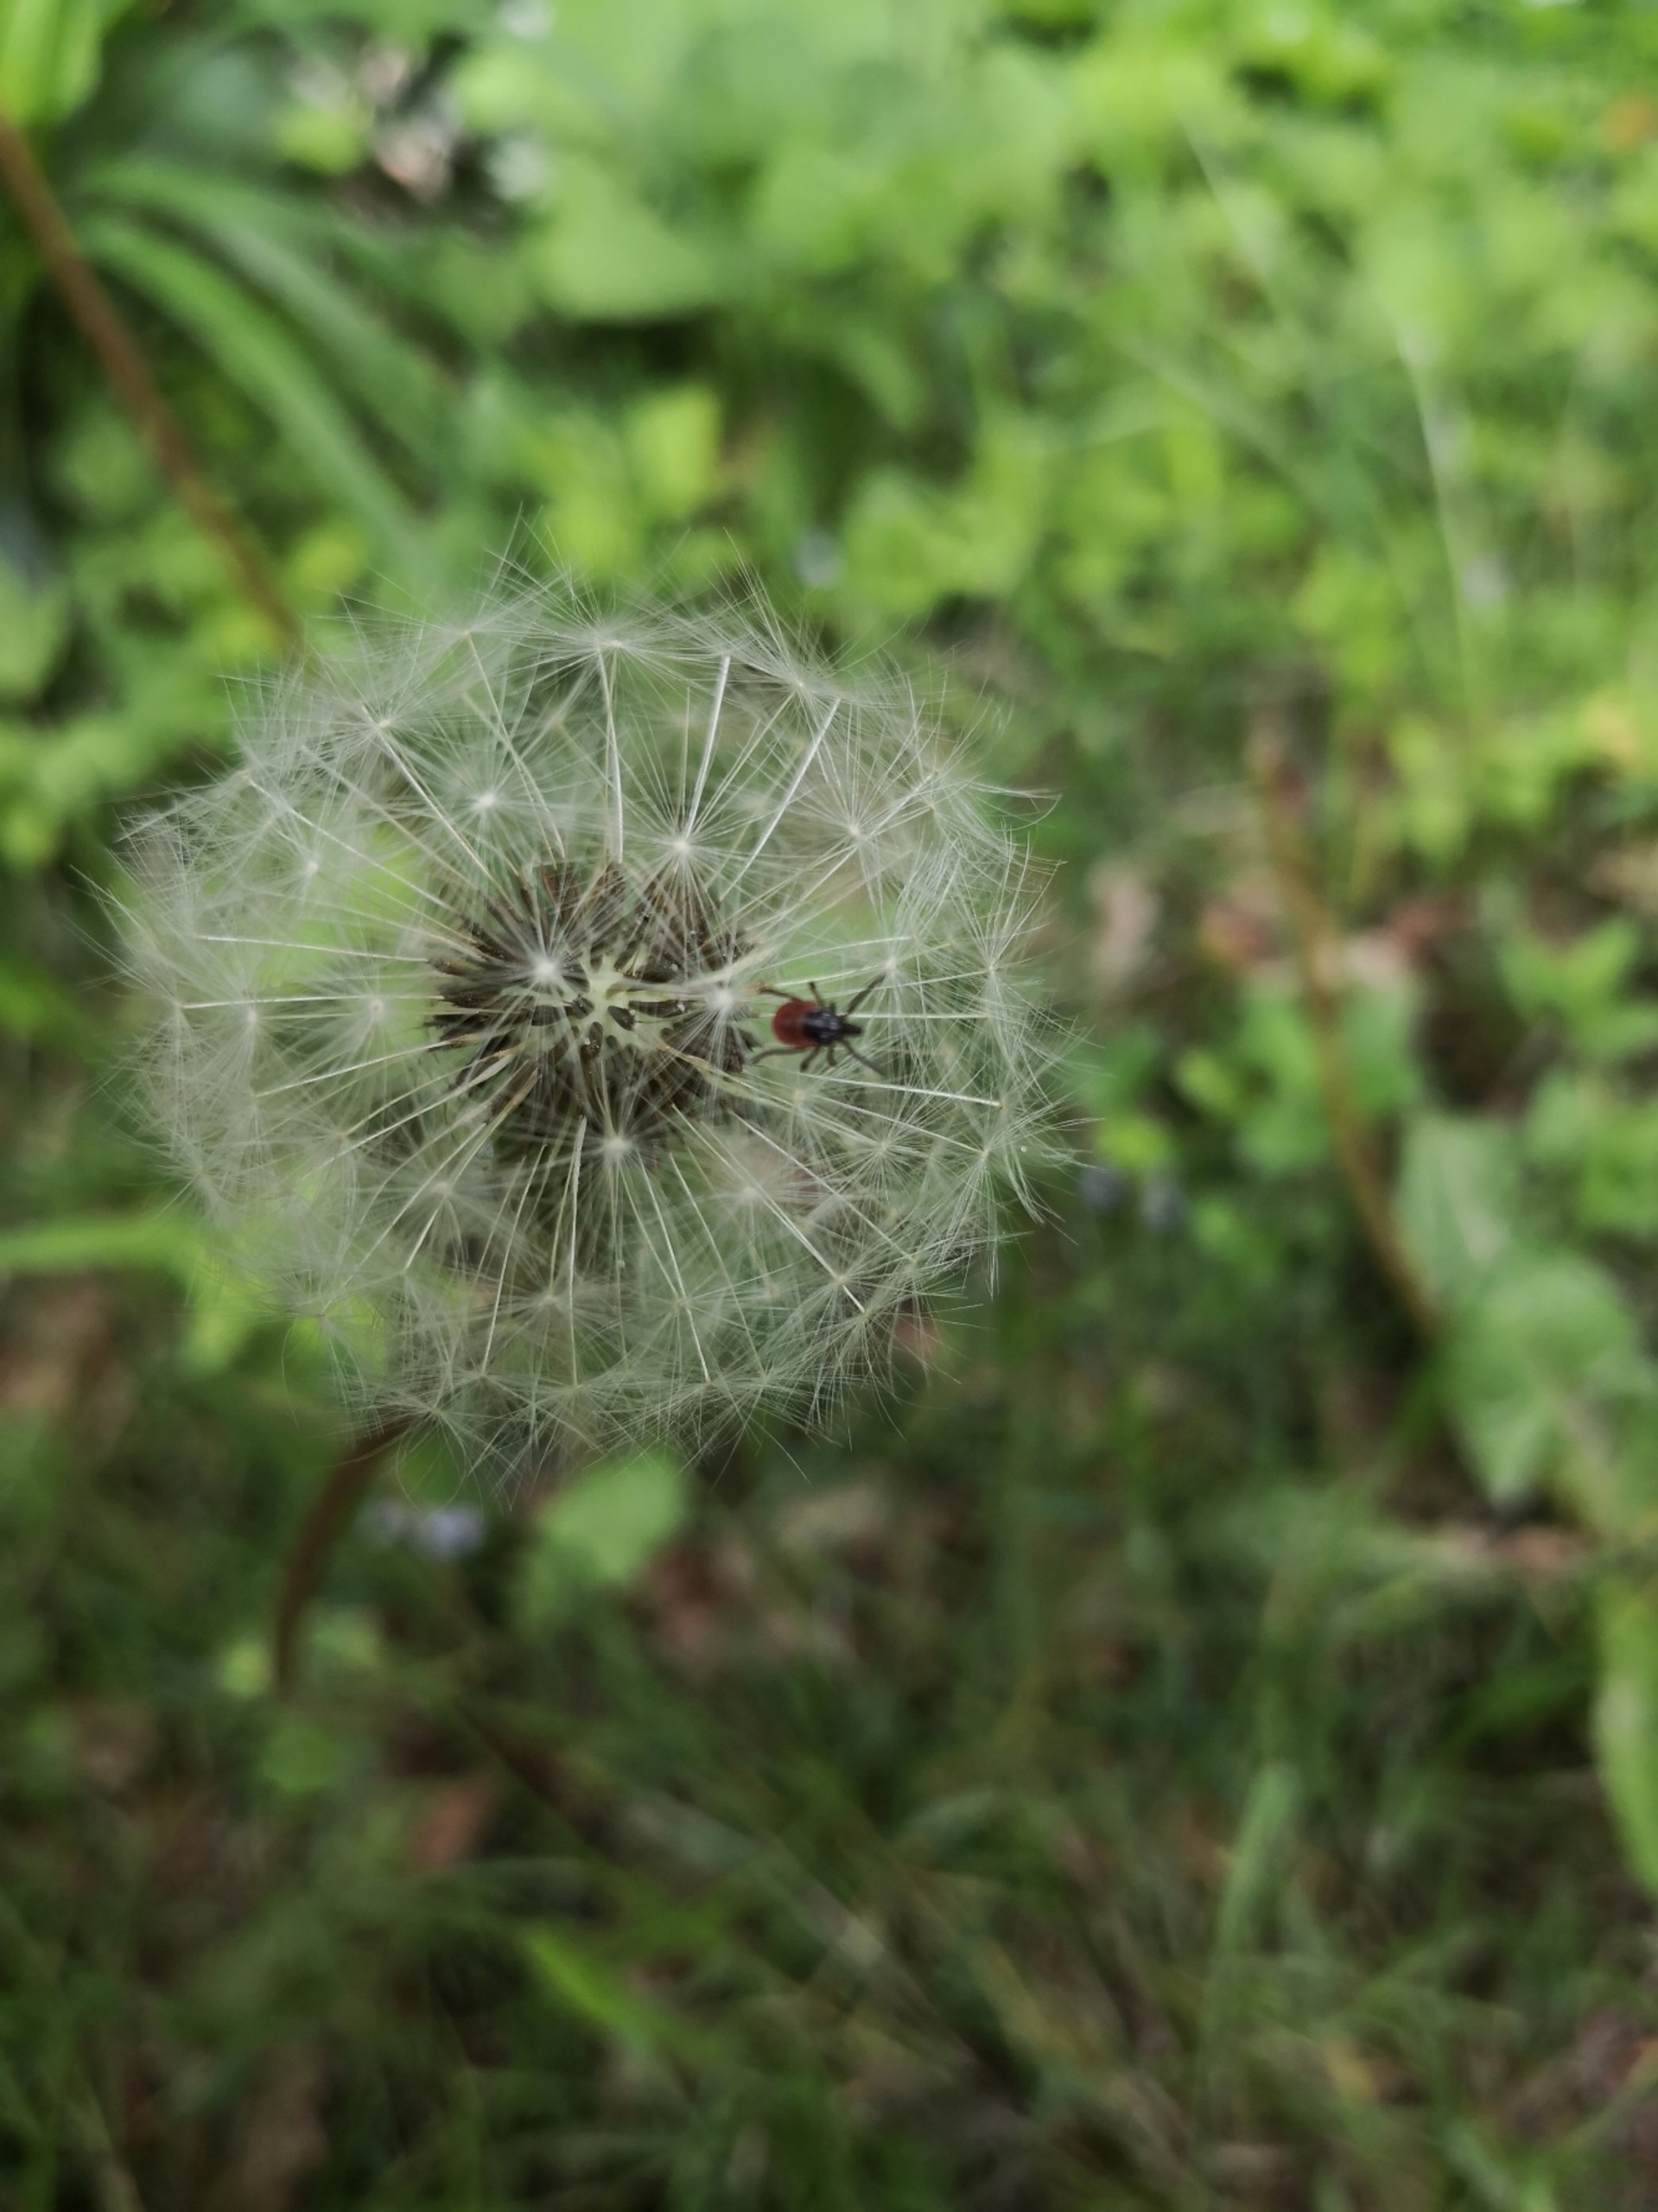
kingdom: Animalia
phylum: Arthropoda
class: Arachnida
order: Ixodida
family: Ixodidae
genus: Ixodes
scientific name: Ixodes ricinus
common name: Skovflåt
